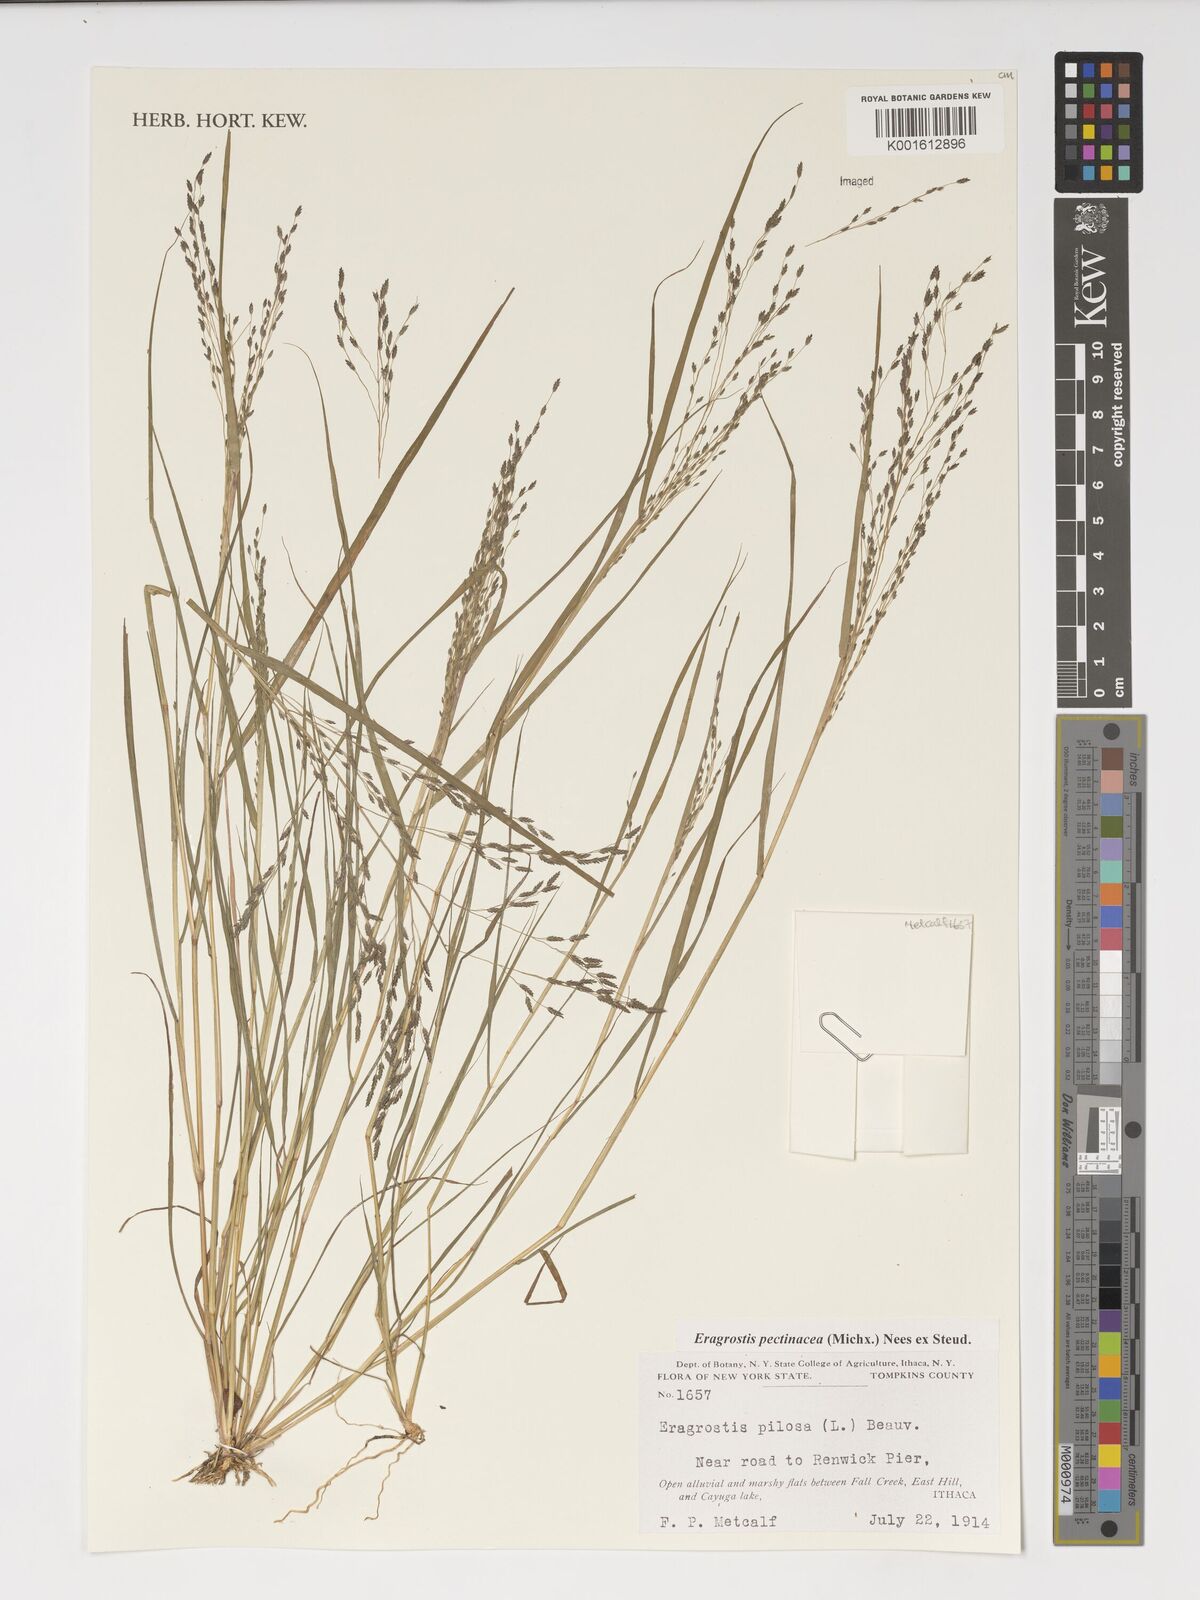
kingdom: Plantae
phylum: Tracheophyta
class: Liliopsida
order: Poales
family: Poaceae
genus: Eragrostis
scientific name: Eragrostis pectinacea
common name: Tufted lovegrass
